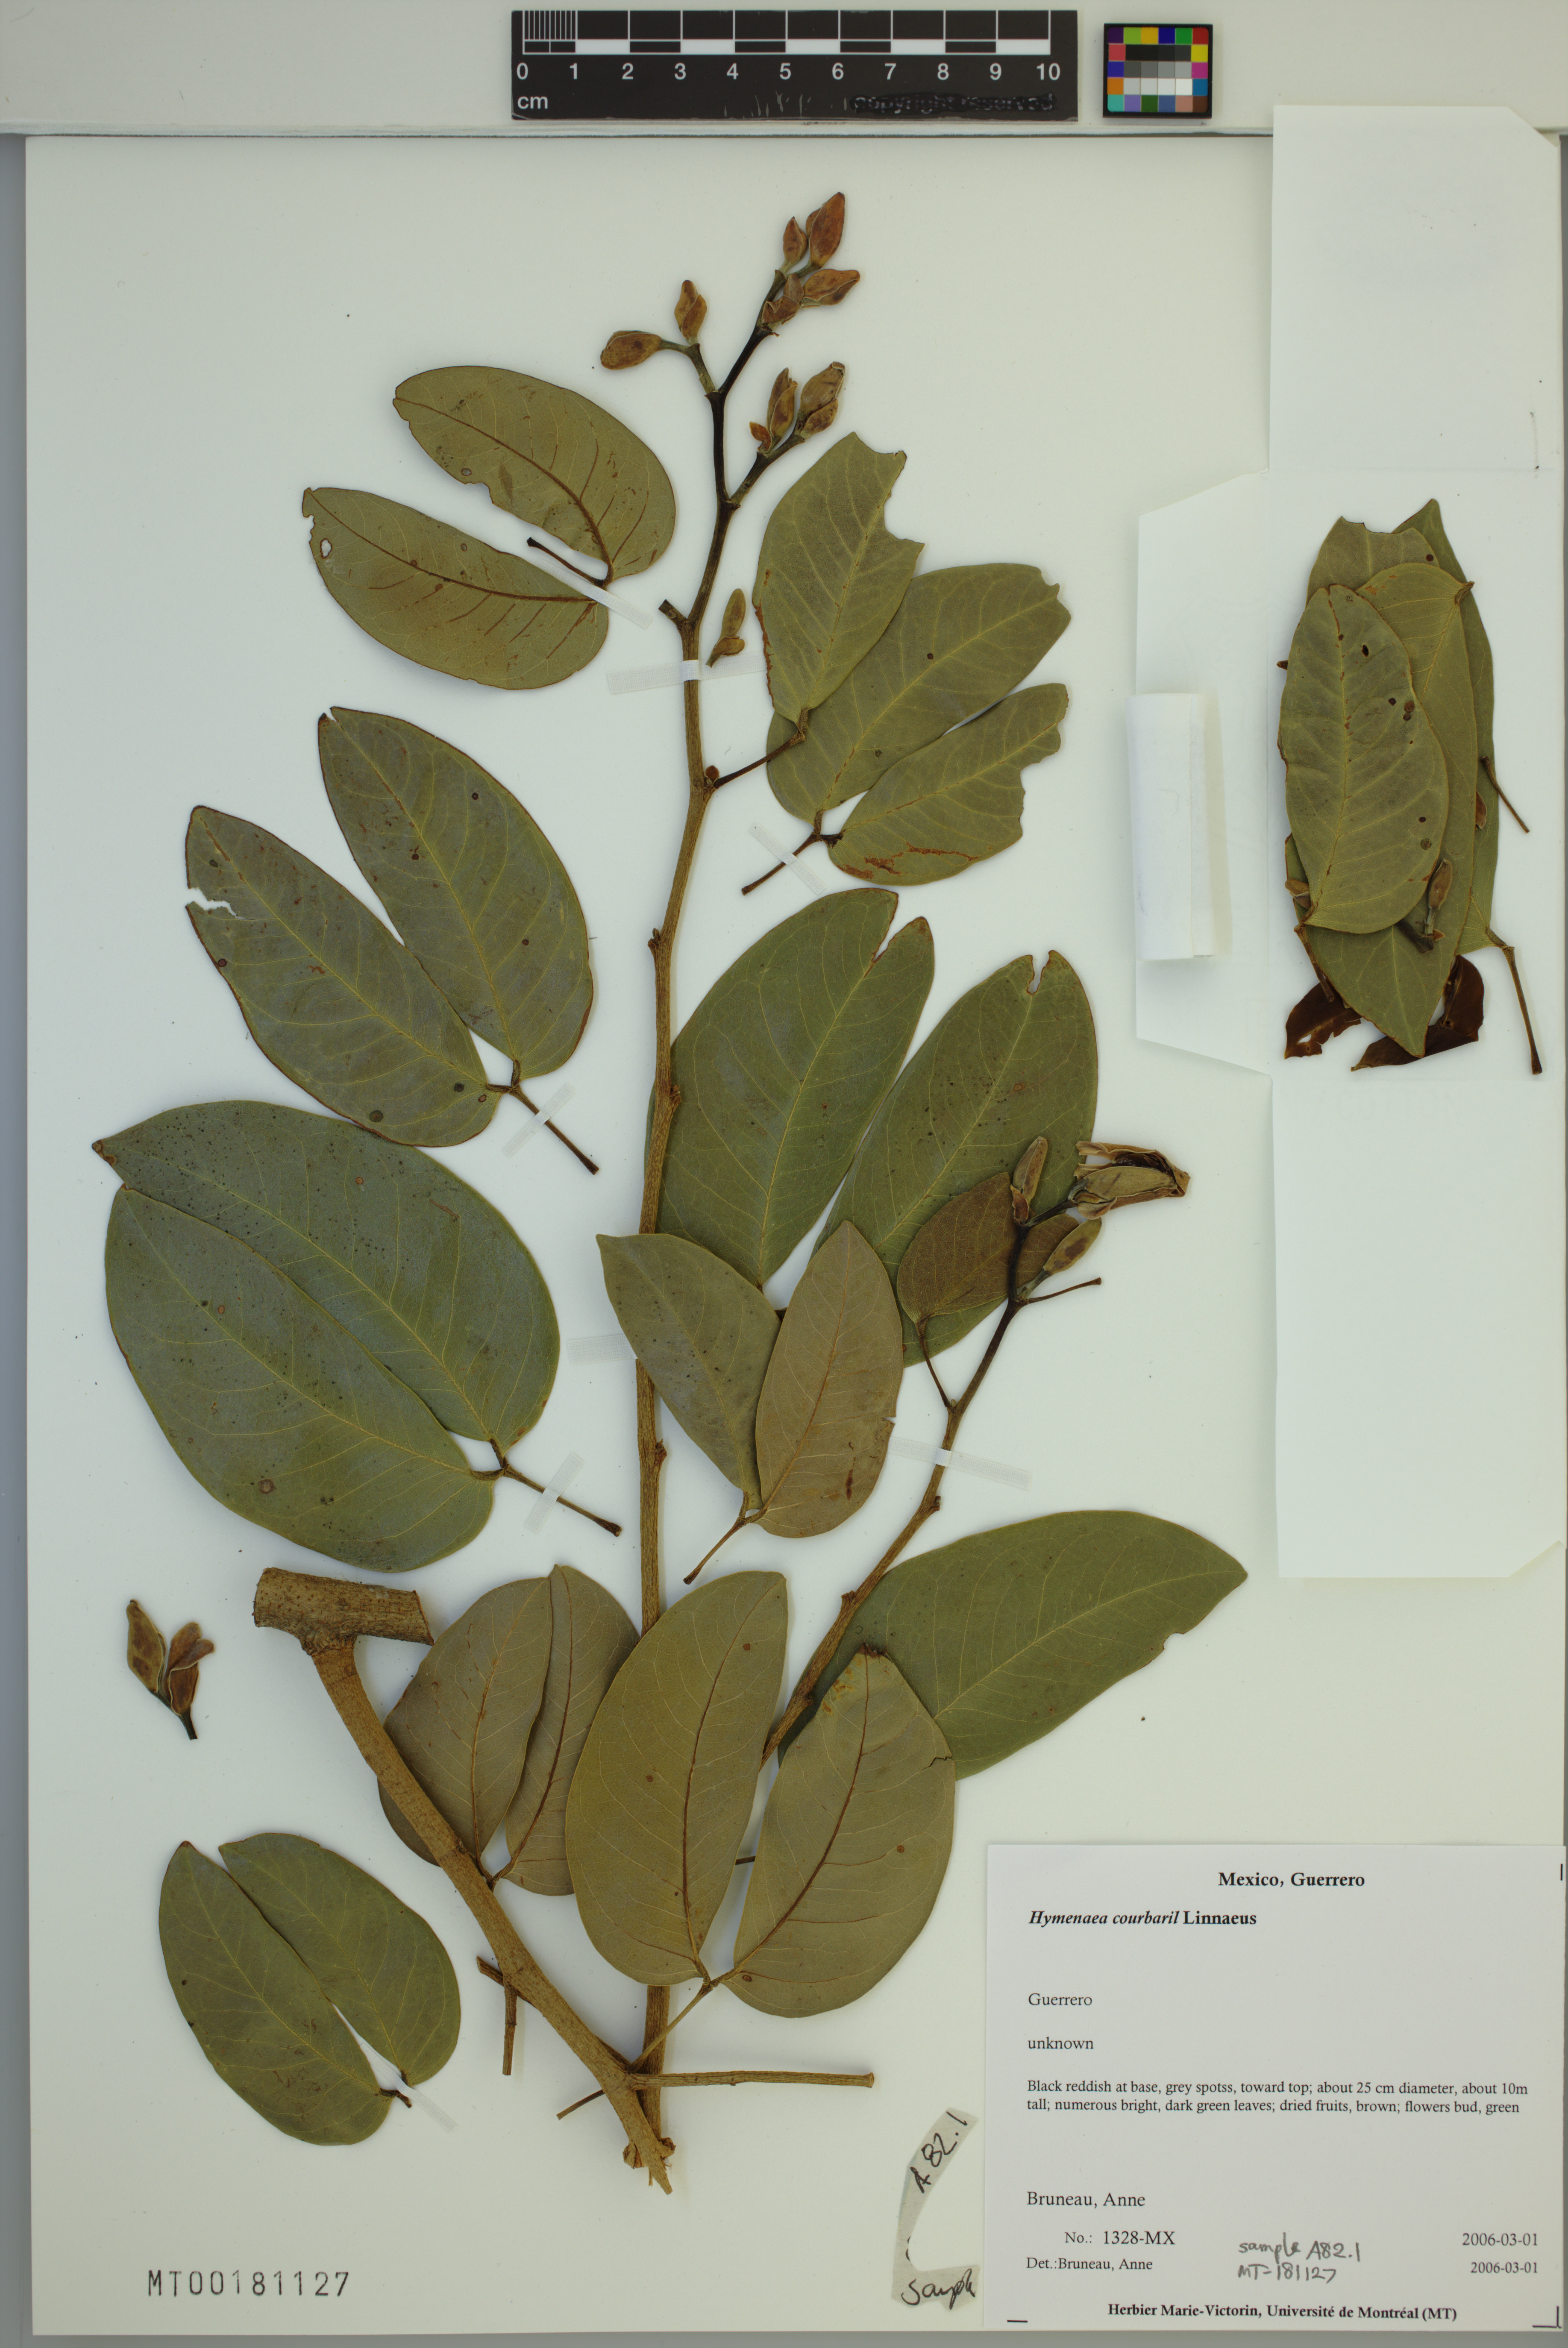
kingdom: Plantae
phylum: Tracheophyta
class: Magnoliopsida
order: Fabales
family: Fabaceae
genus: Hymenaea
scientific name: Hymenaea courbaril
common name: Brazilian copal
